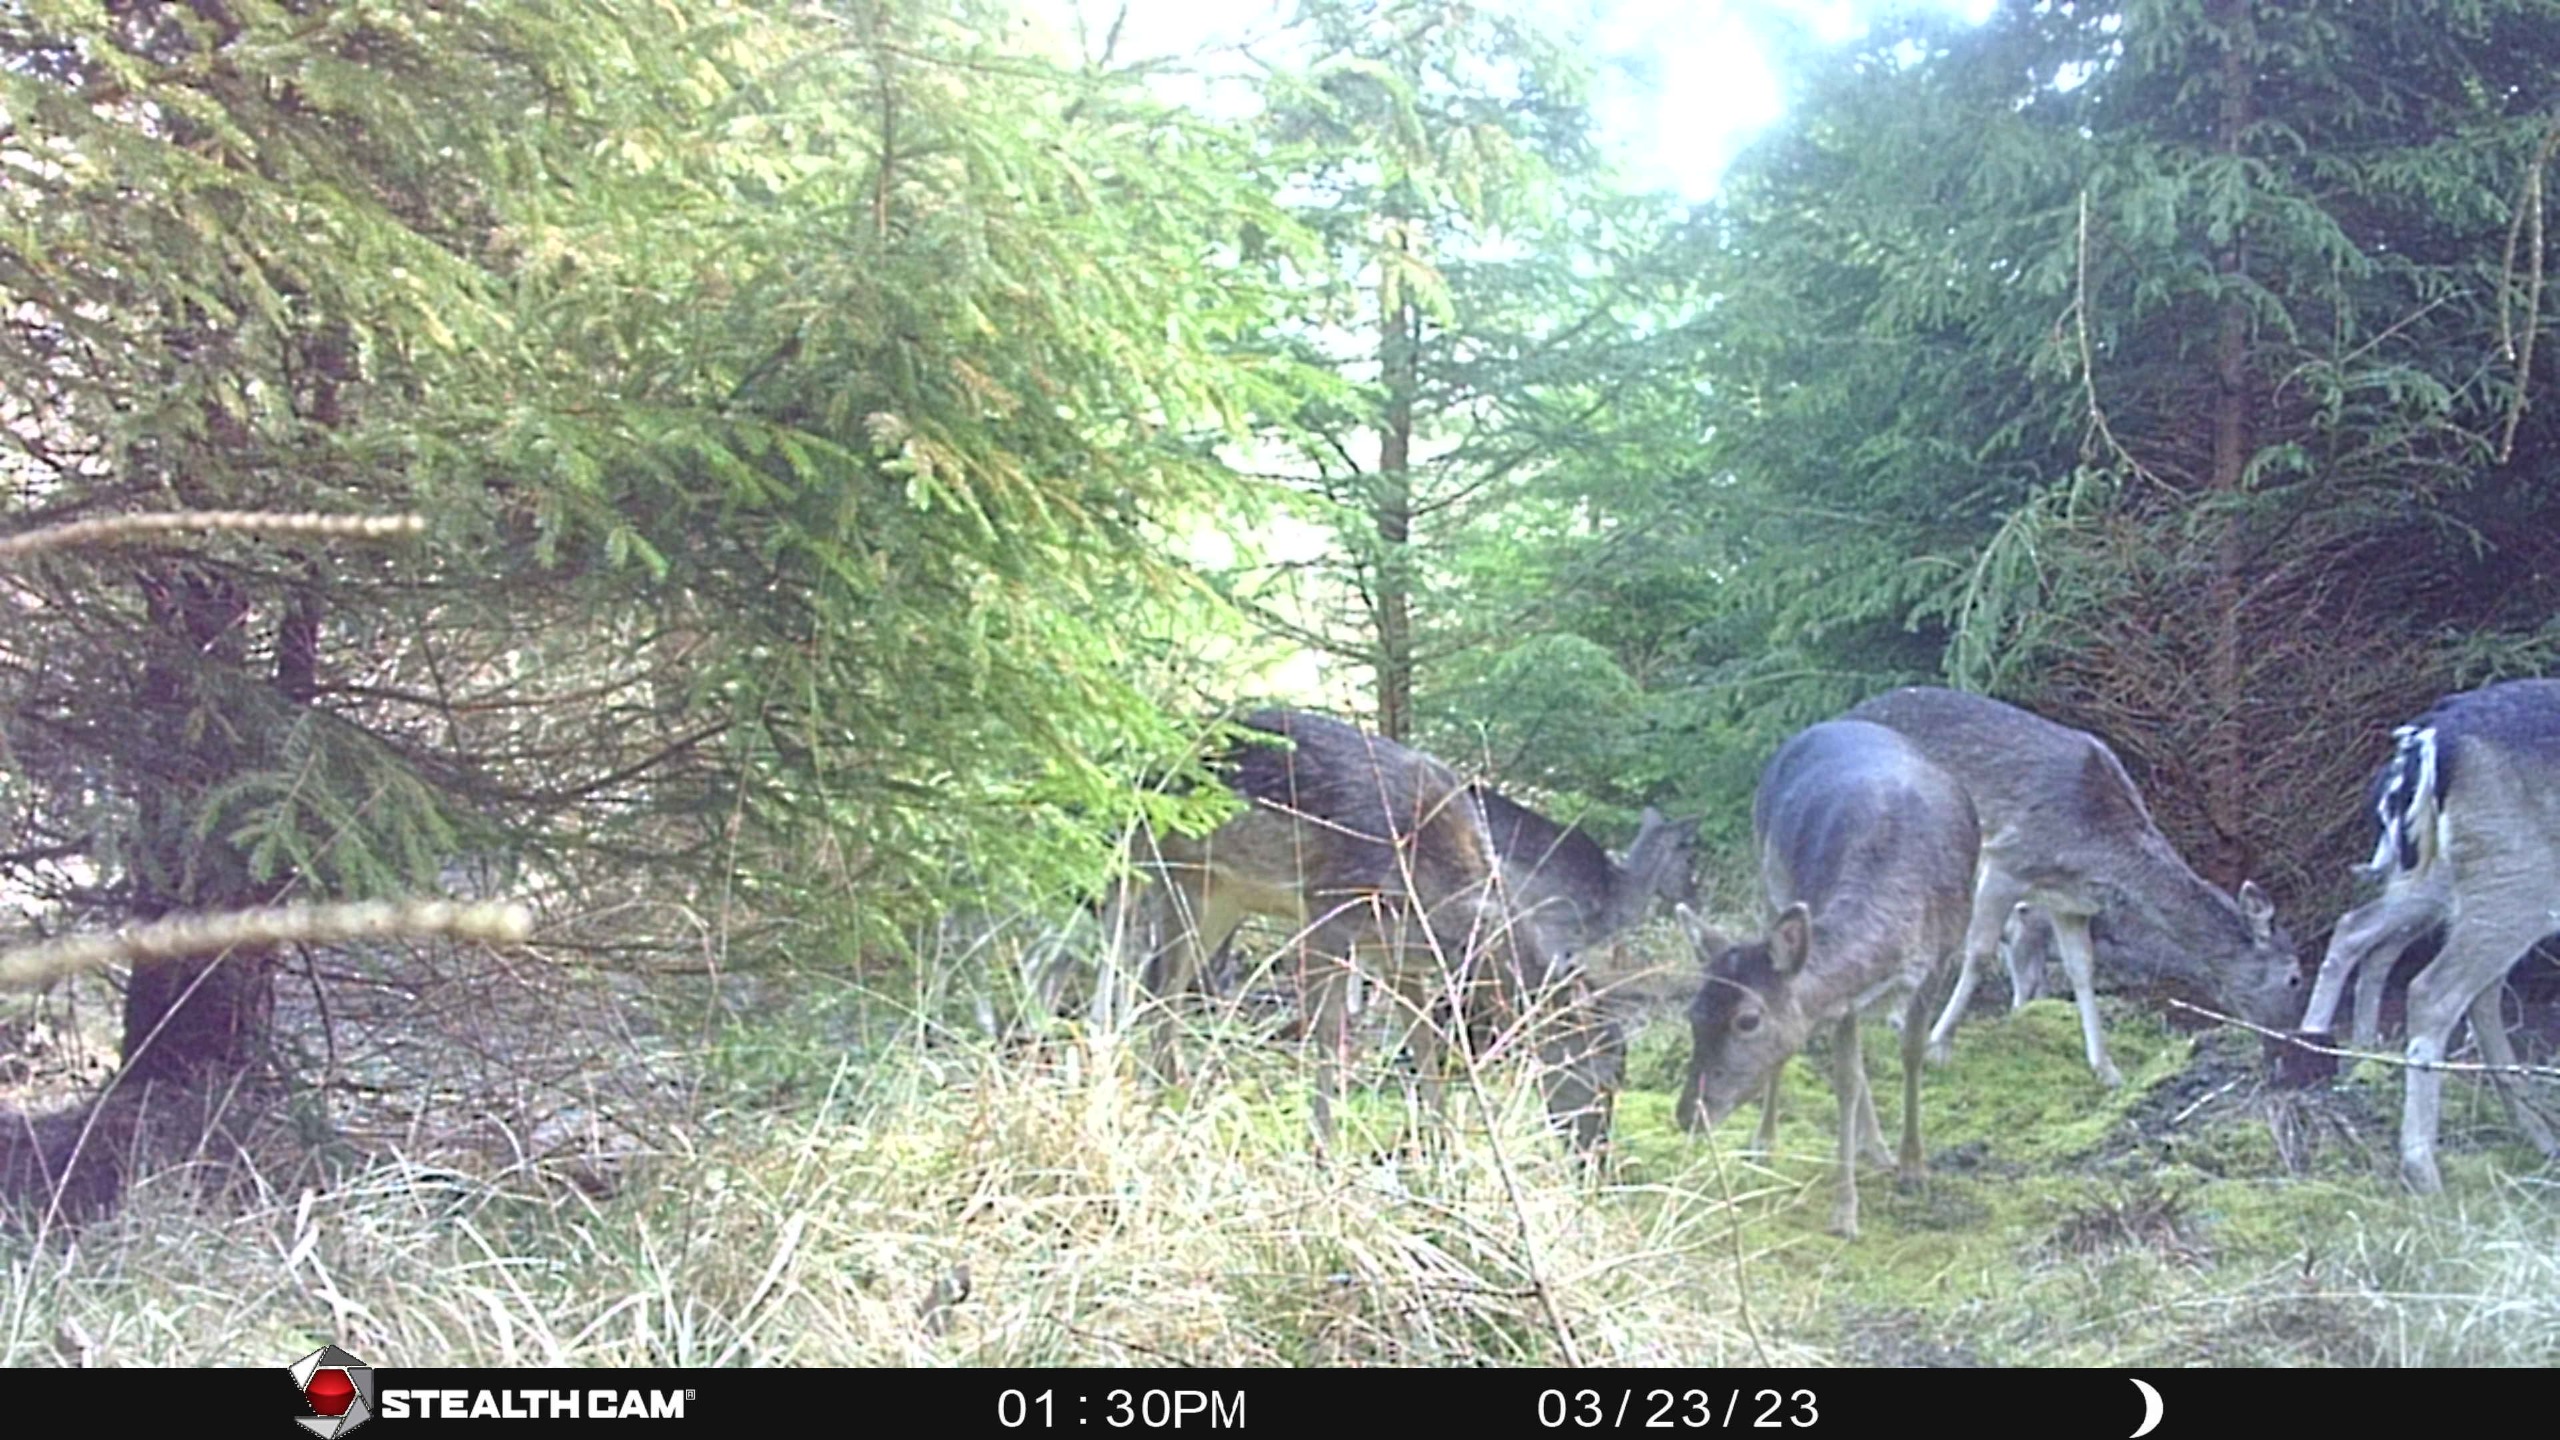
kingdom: Animalia
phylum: Chordata
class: Mammalia
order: Artiodactyla
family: Cervidae
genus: Dama
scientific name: Dama dama
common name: Dådyr
